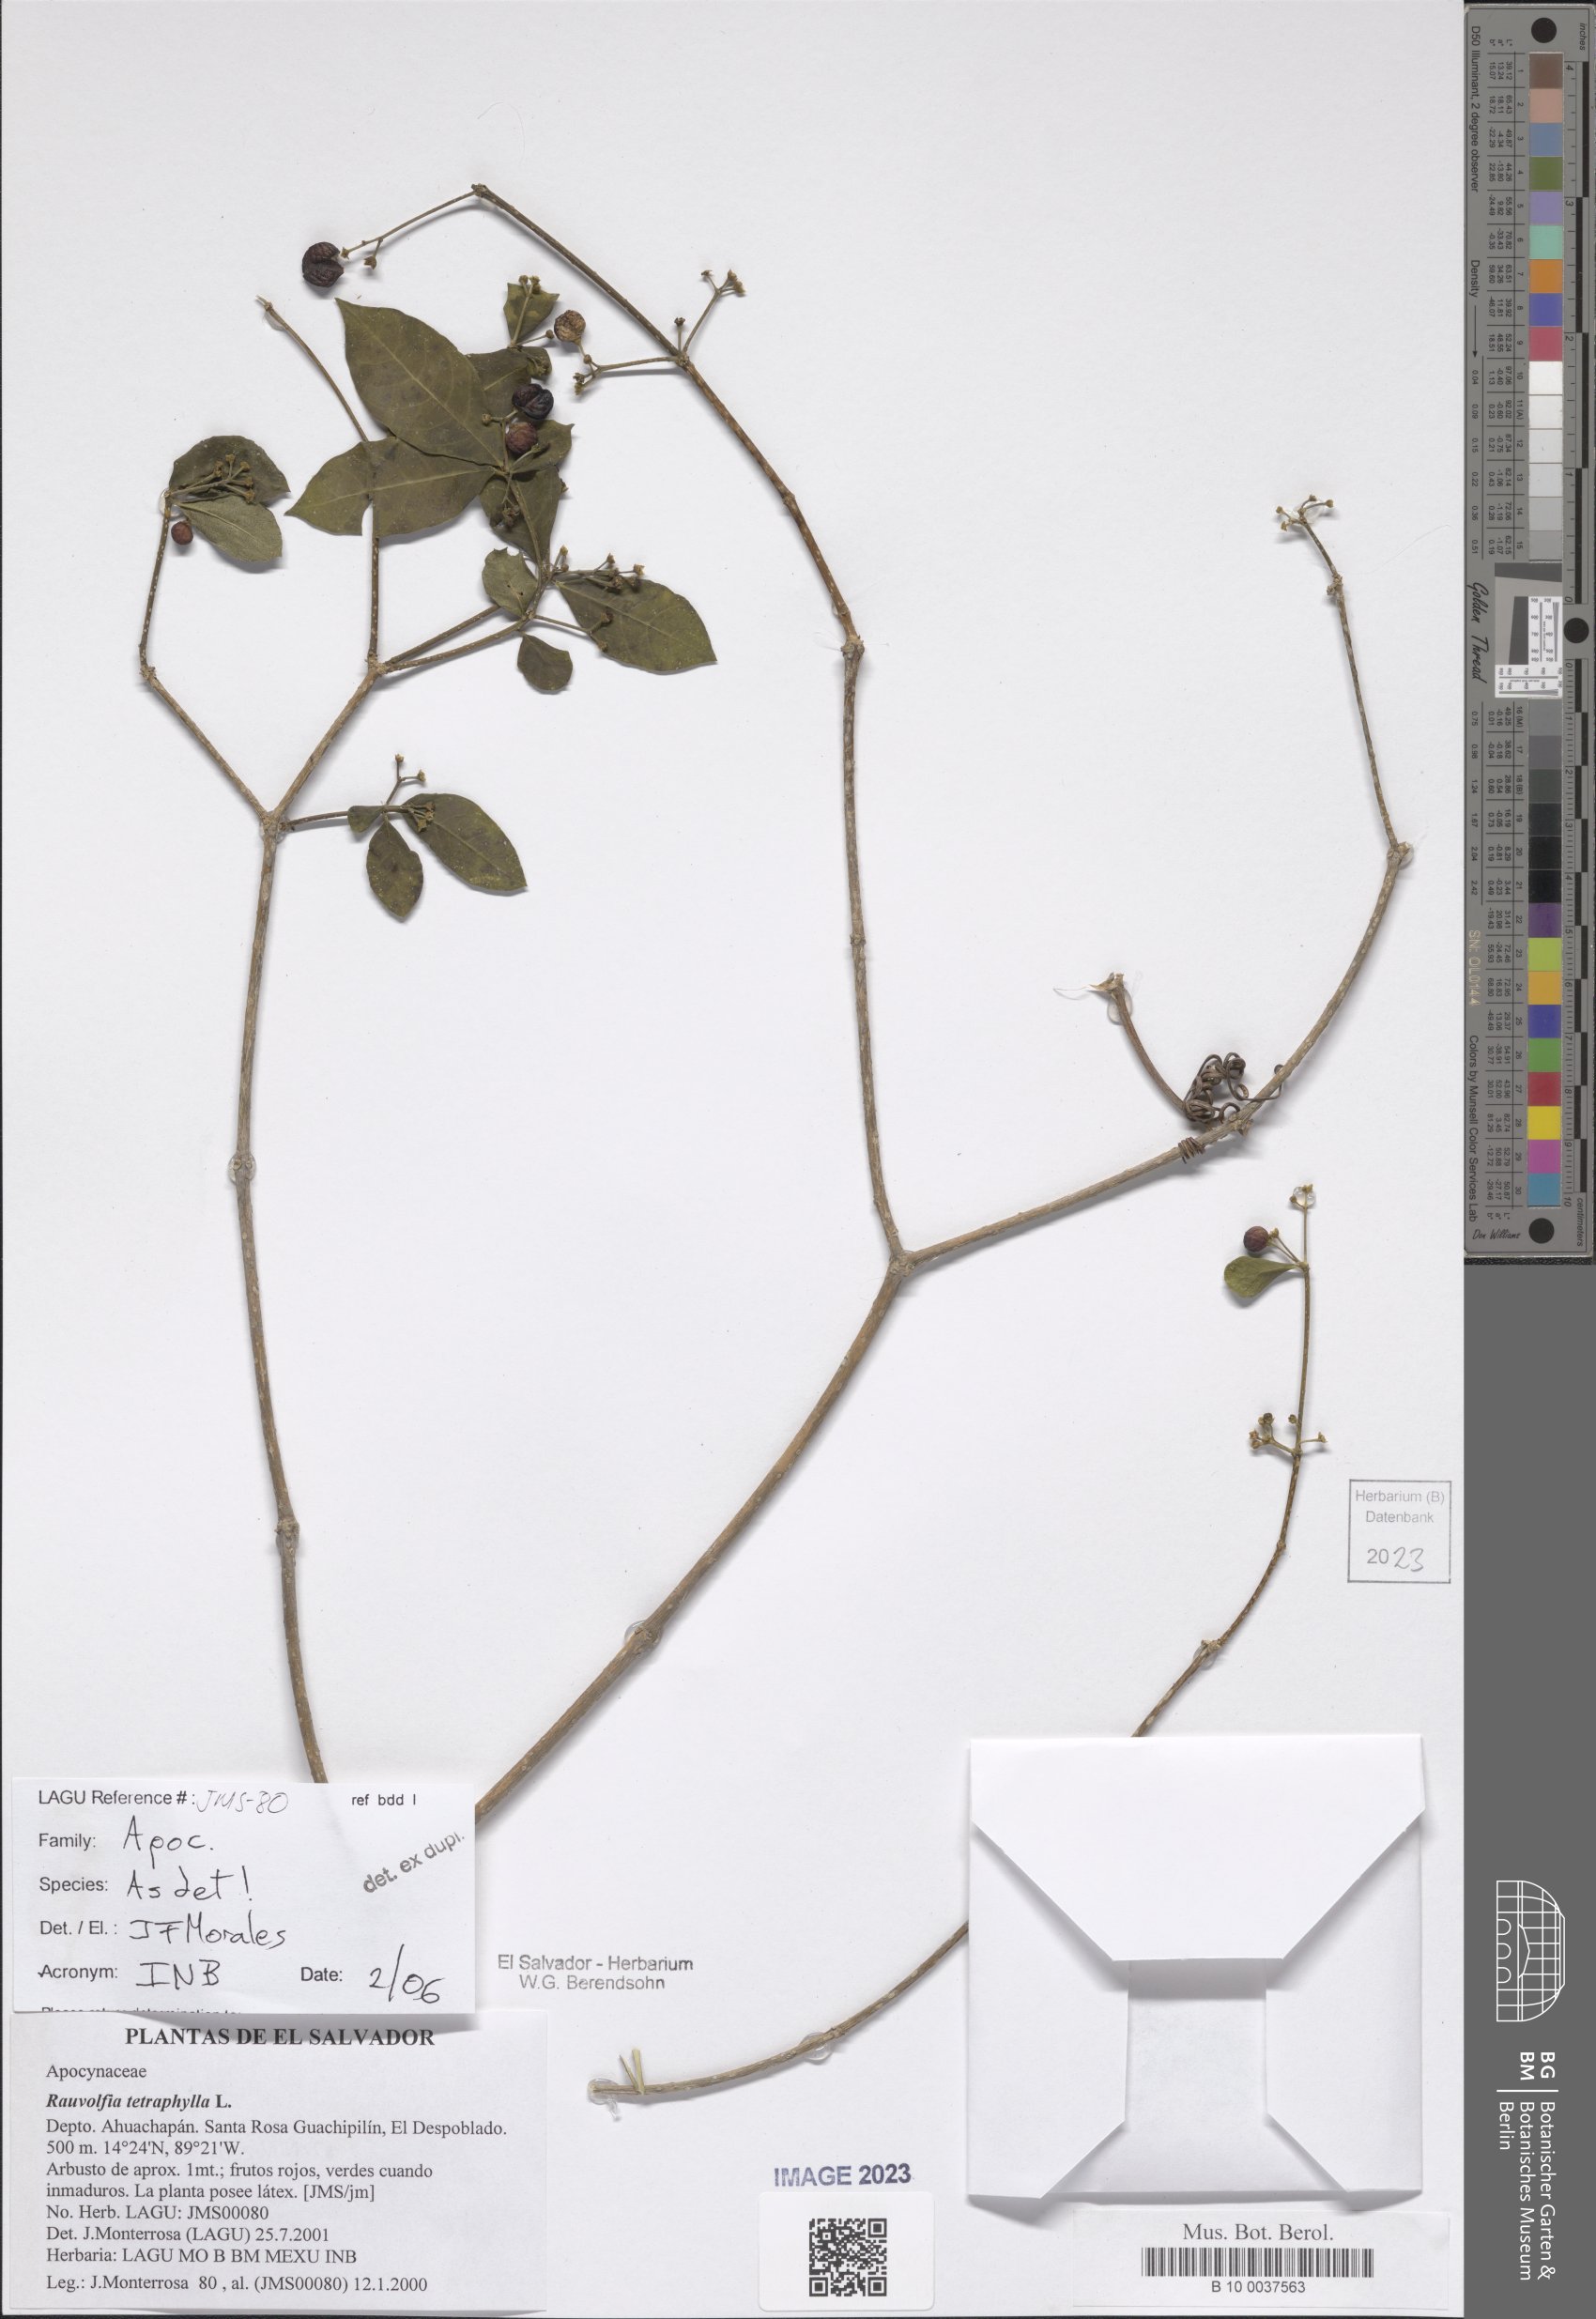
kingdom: Plantae
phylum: Tracheophyta
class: Magnoliopsida
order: Gentianales
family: Apocynaceae
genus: Rauvolfia
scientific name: Rauvolfia tetraphylla
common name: Four-leaf devil-pepper
